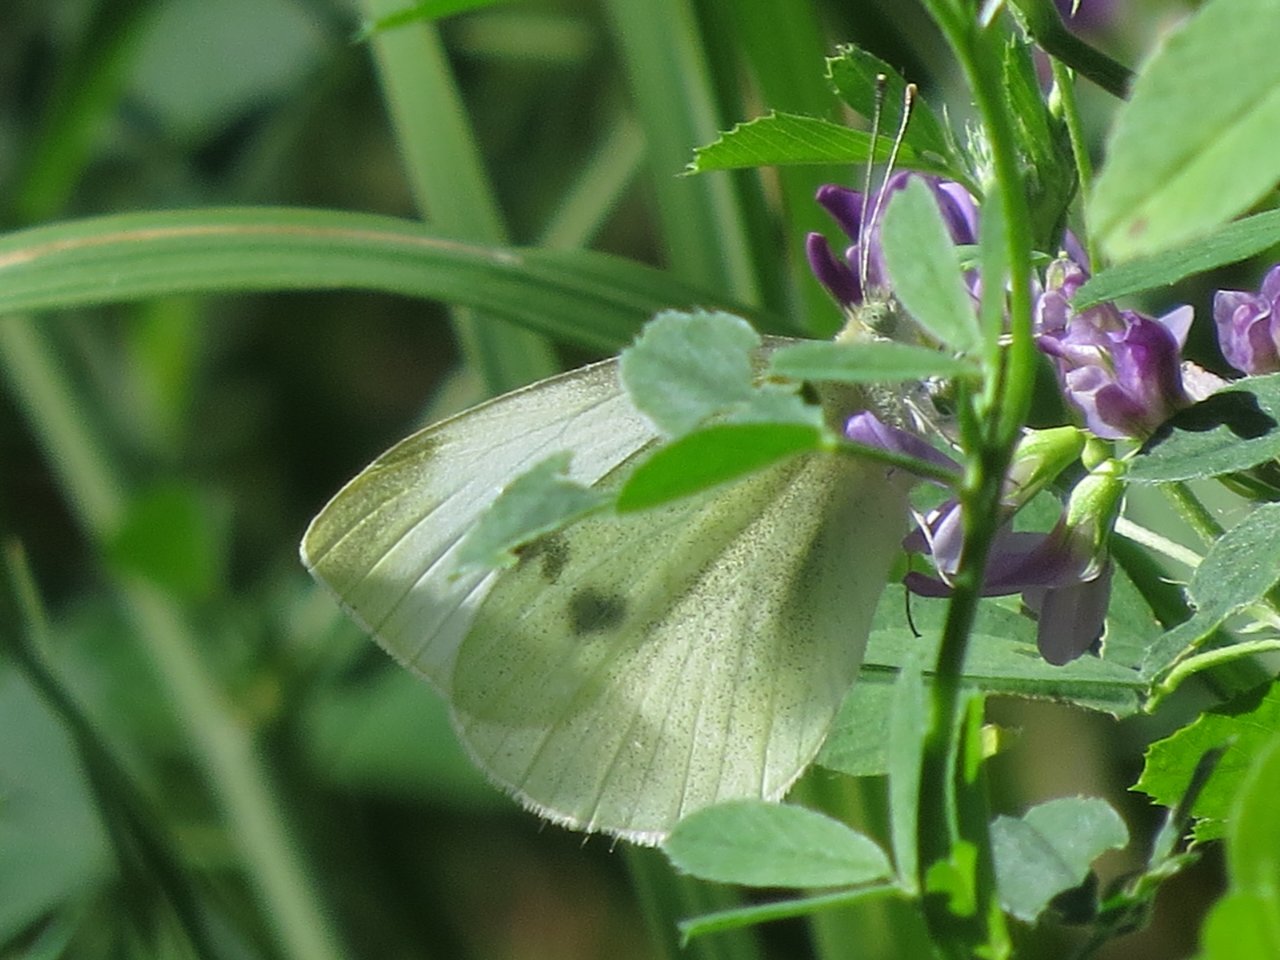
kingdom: Animalia
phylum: Arthropoda
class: Insecta
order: Lepidoptera
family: Pieridae
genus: Pieris
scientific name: Pieris rapae
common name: Cabbage White
